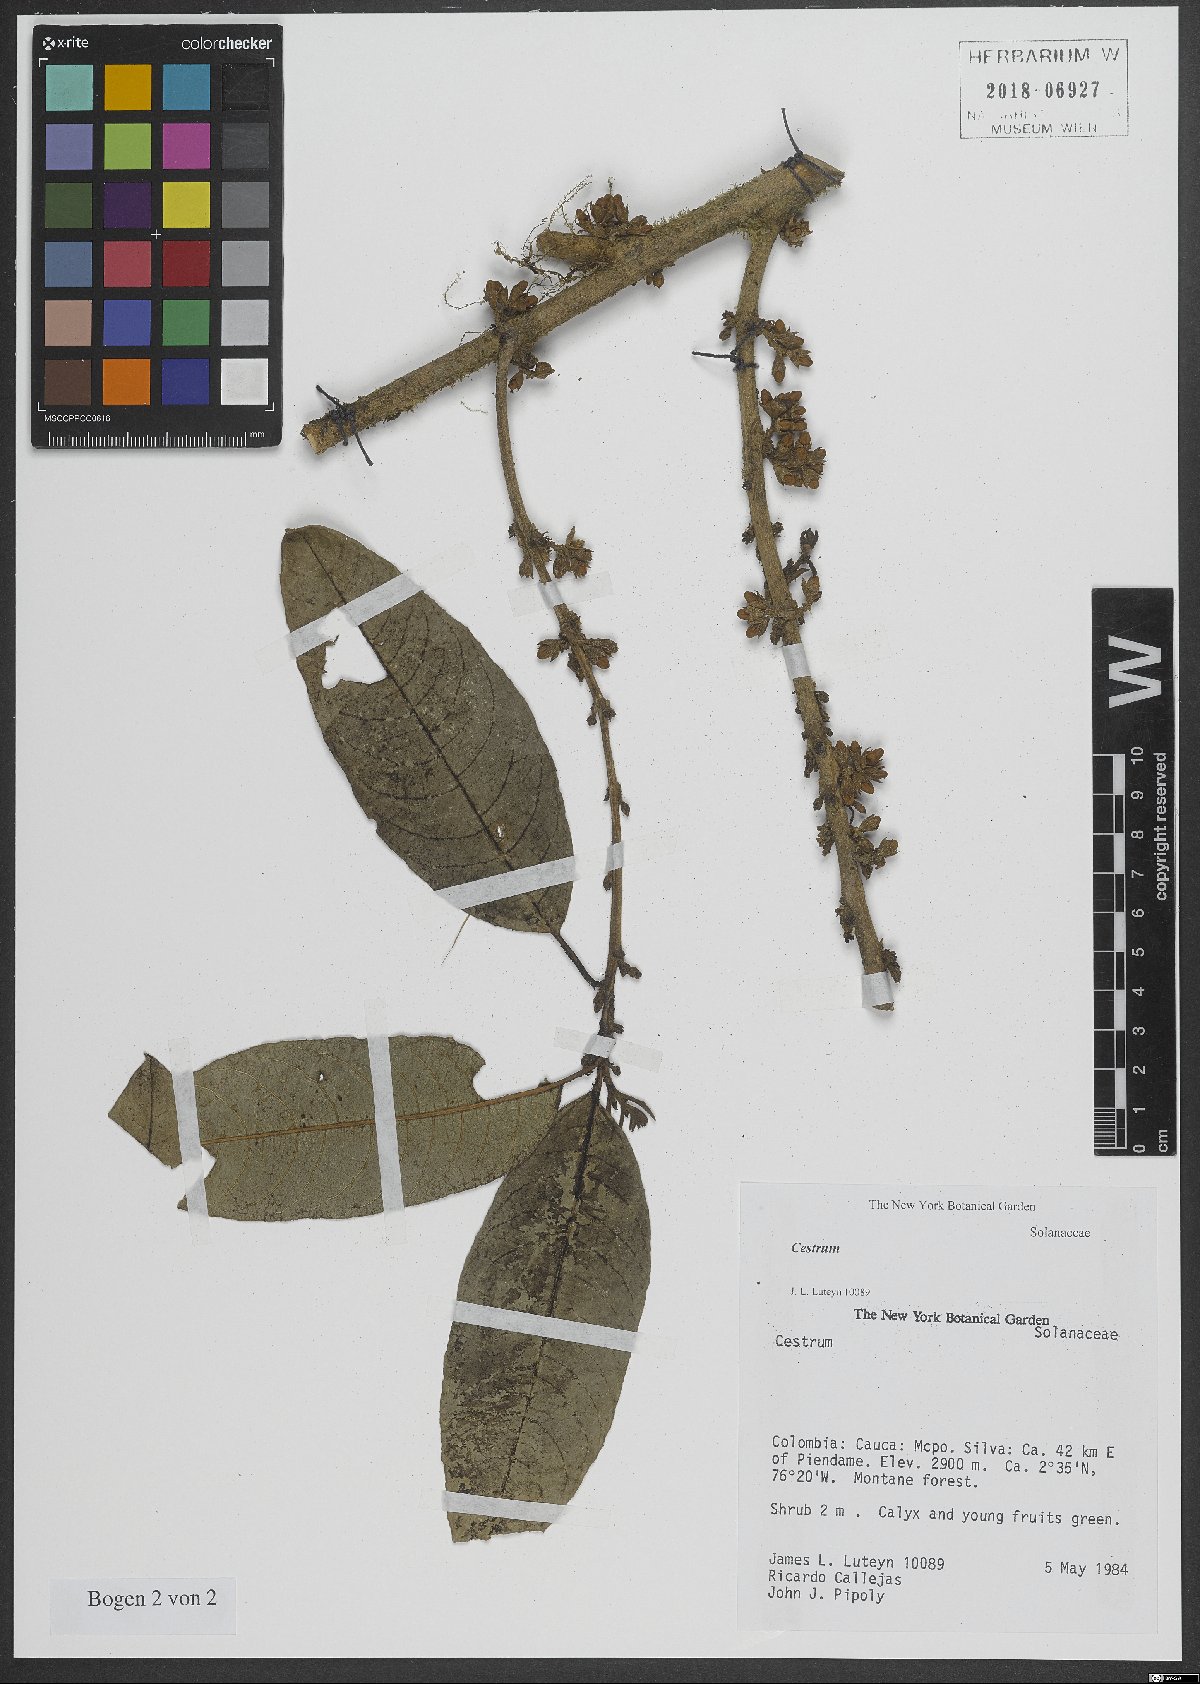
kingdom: Plantae
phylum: Tracheophyta
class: Magnoliopsida
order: Solanales
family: Solanaceae
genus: Cestrum
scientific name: Cestrum
